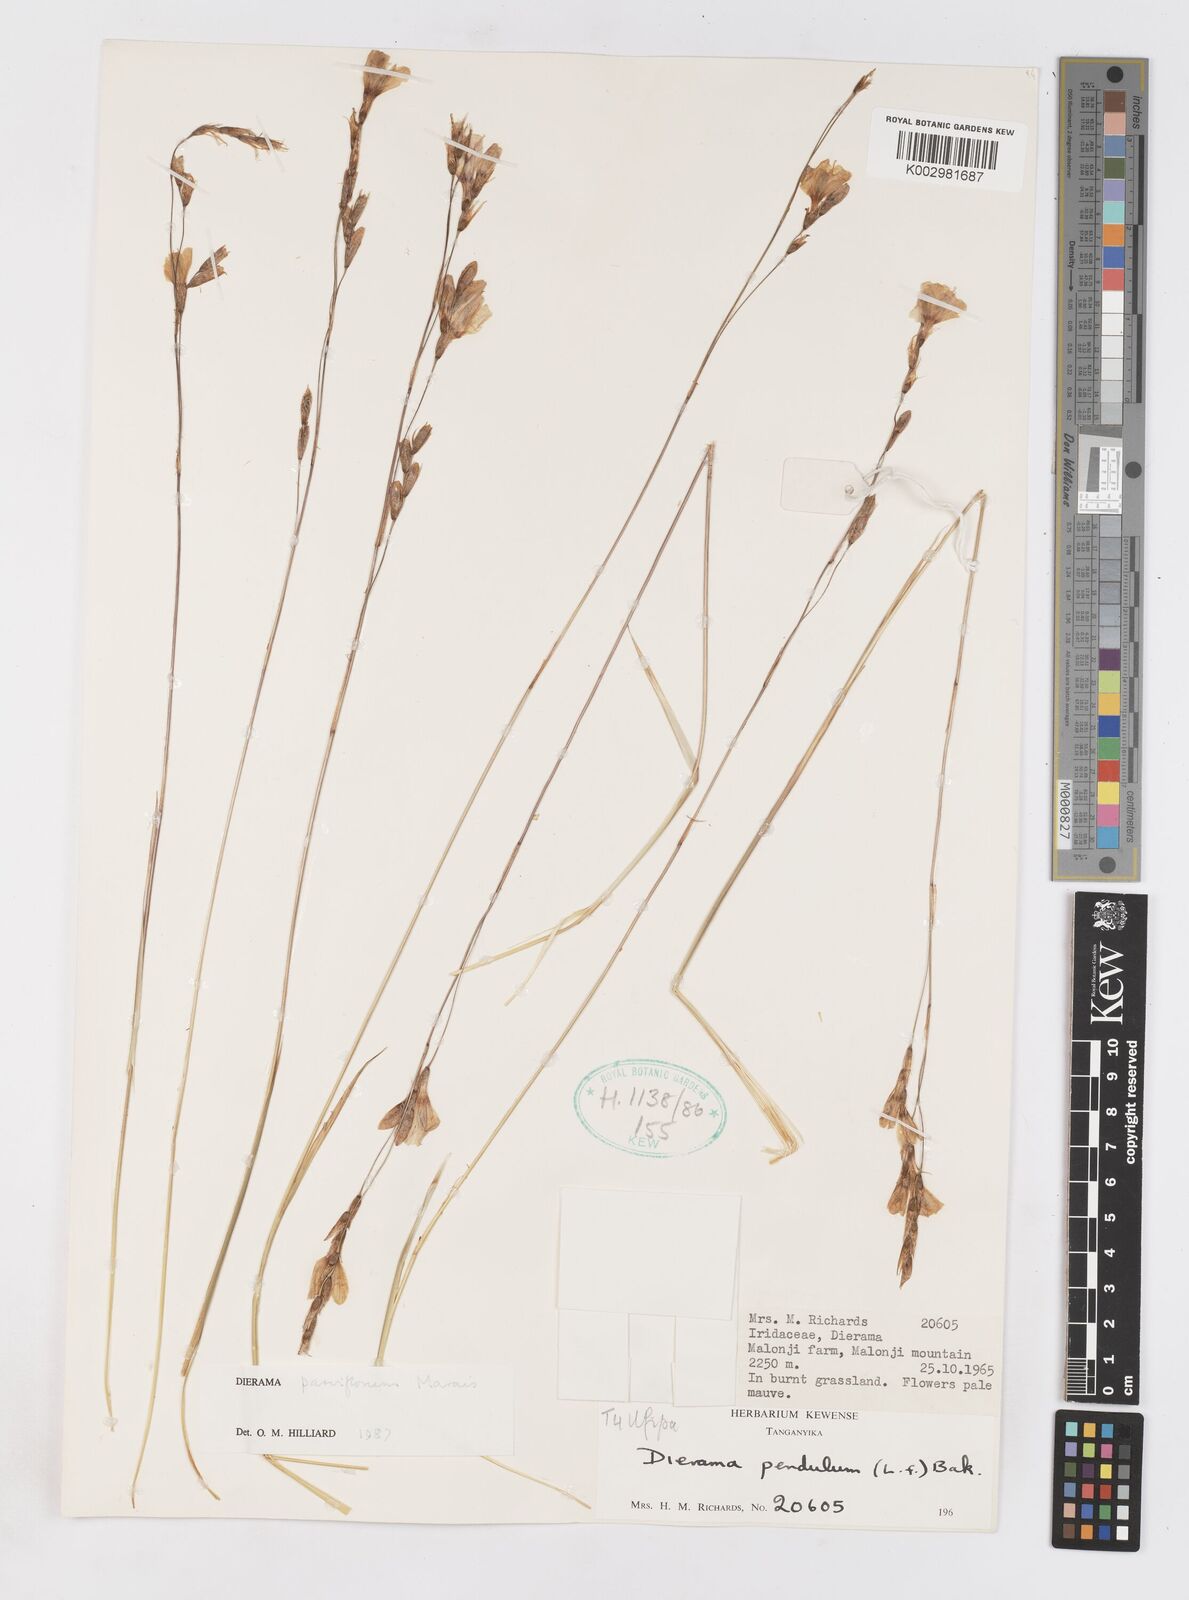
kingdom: Plantae
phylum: Tracheophyta
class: Liliopsida
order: Asparagales
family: Iridaceae
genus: Dierama
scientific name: Dierama parviflorum
